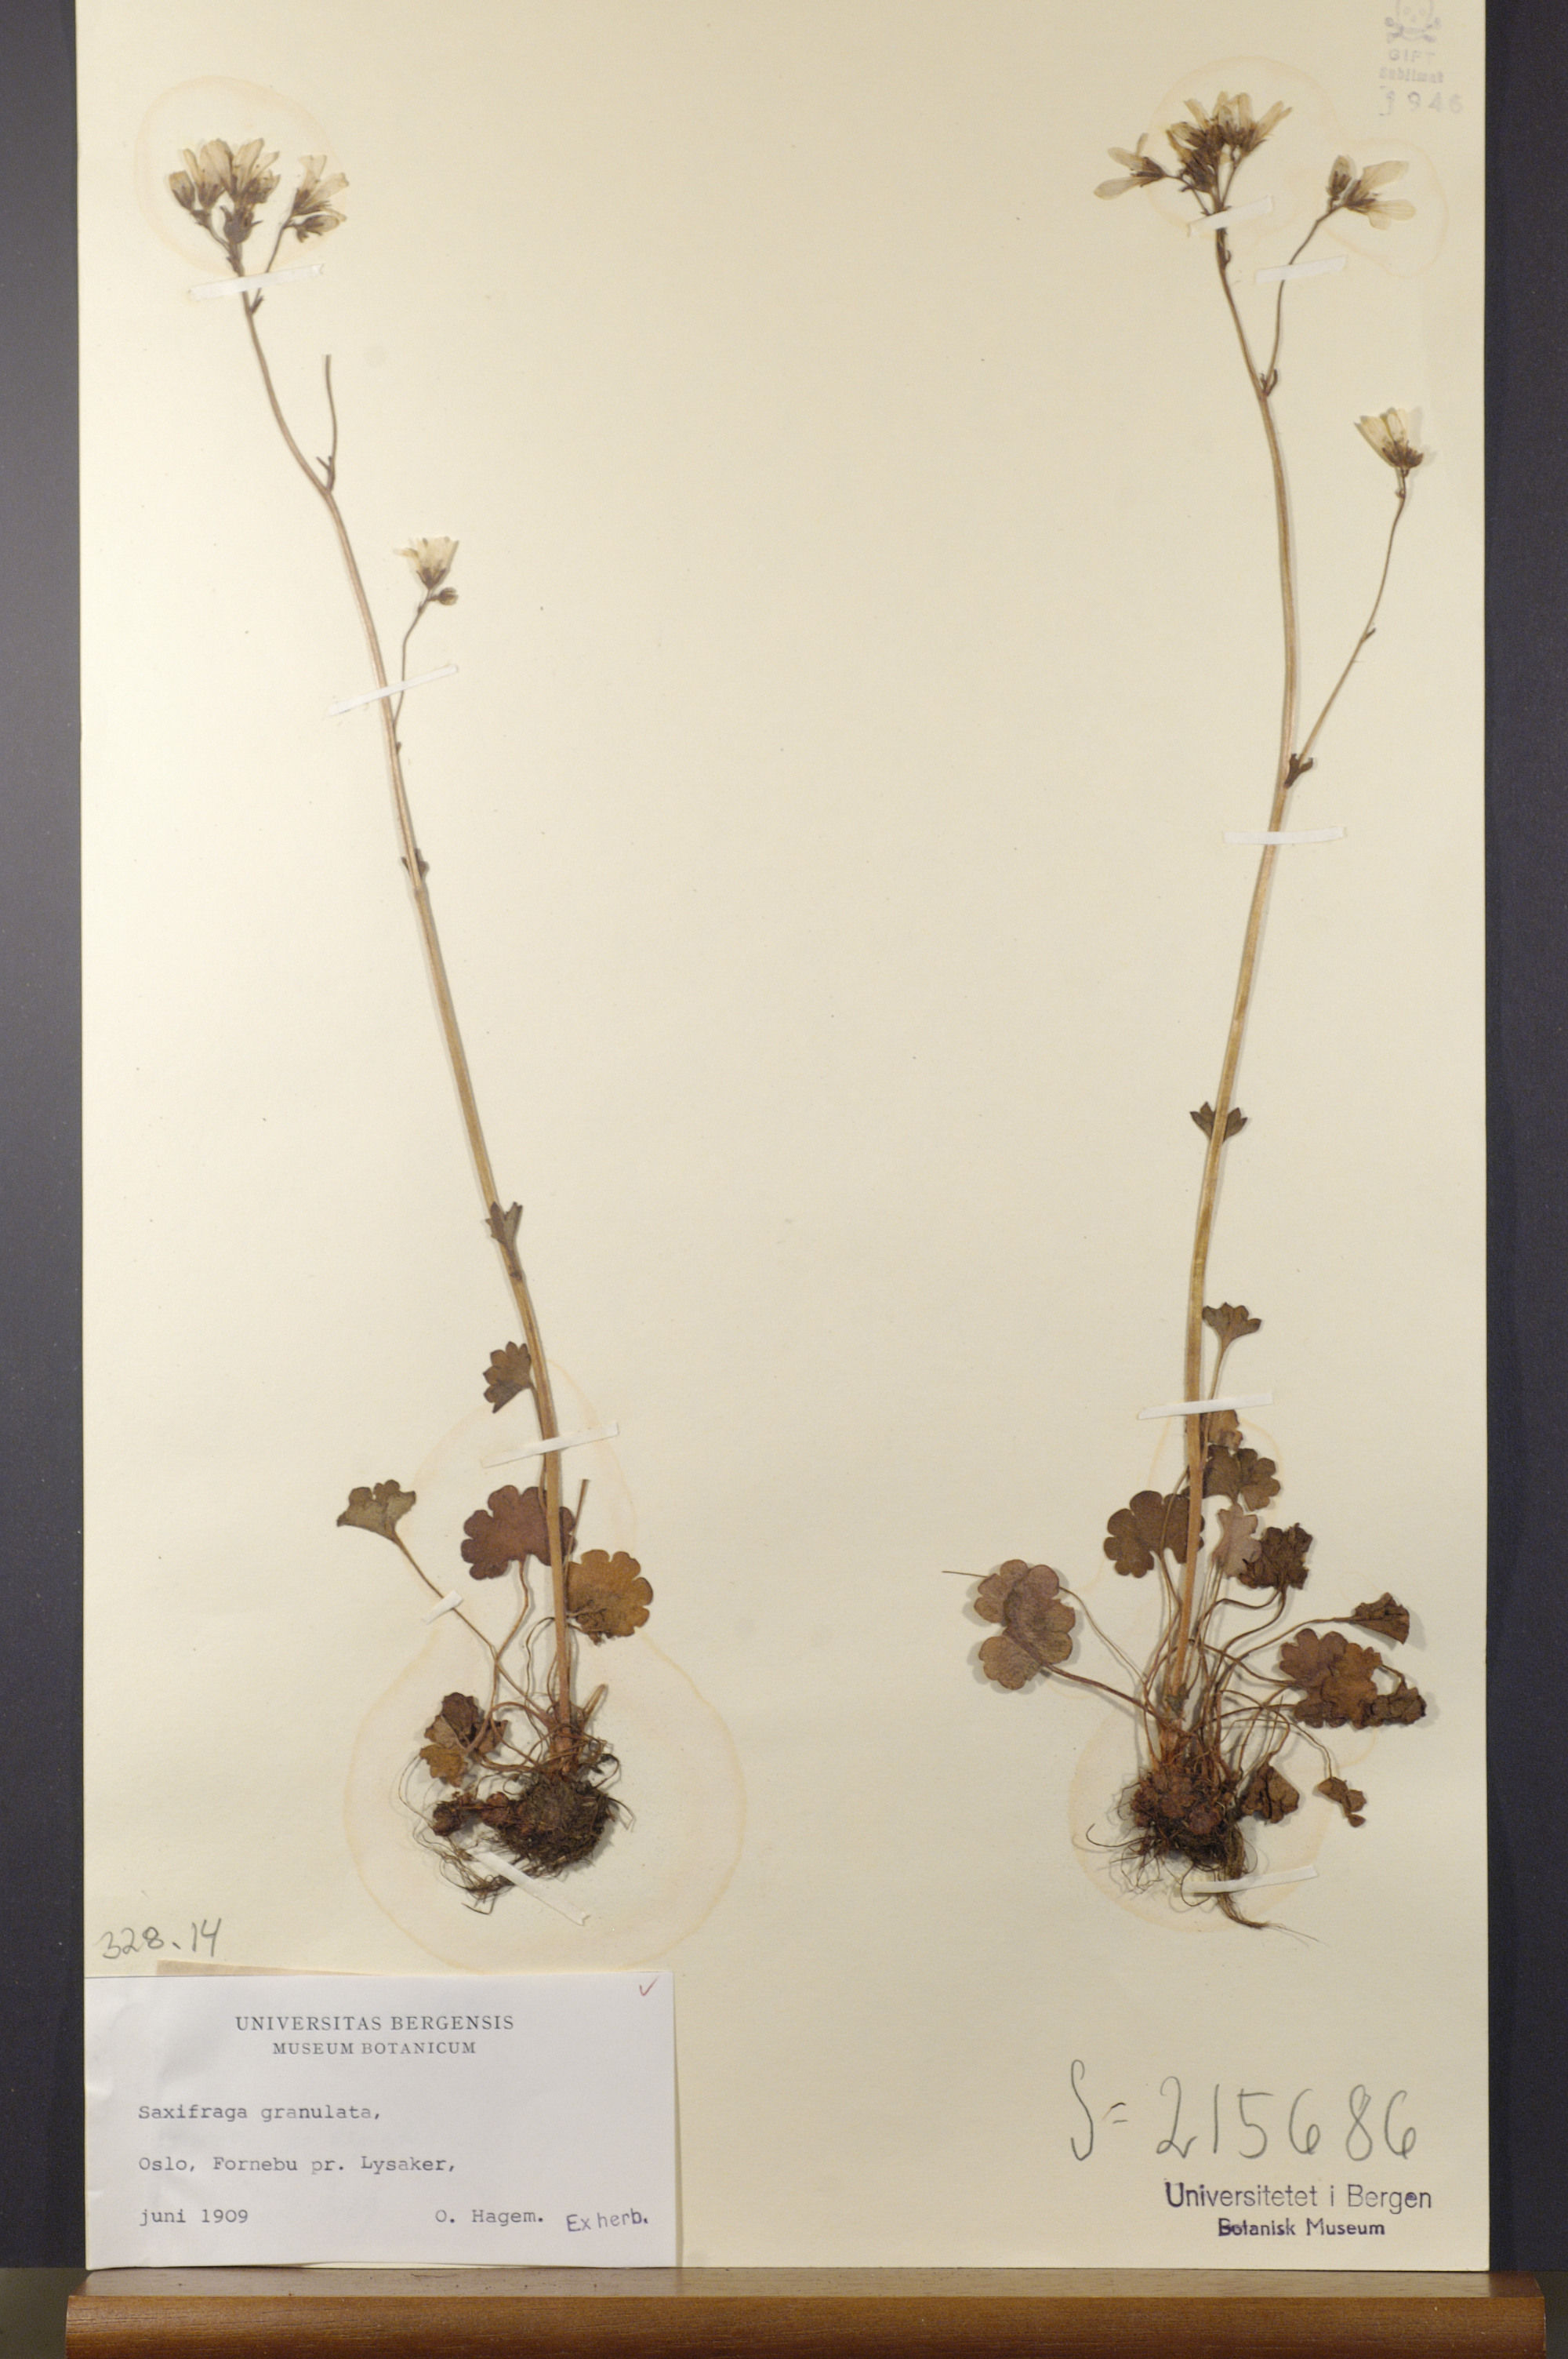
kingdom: Plantae
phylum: Tracheophyta
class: Magnoliopsida
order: Saxifragales
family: Saxifragaceae
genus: Saxifraga
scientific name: Saxifraga granulata
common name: Meadow saxifrage
